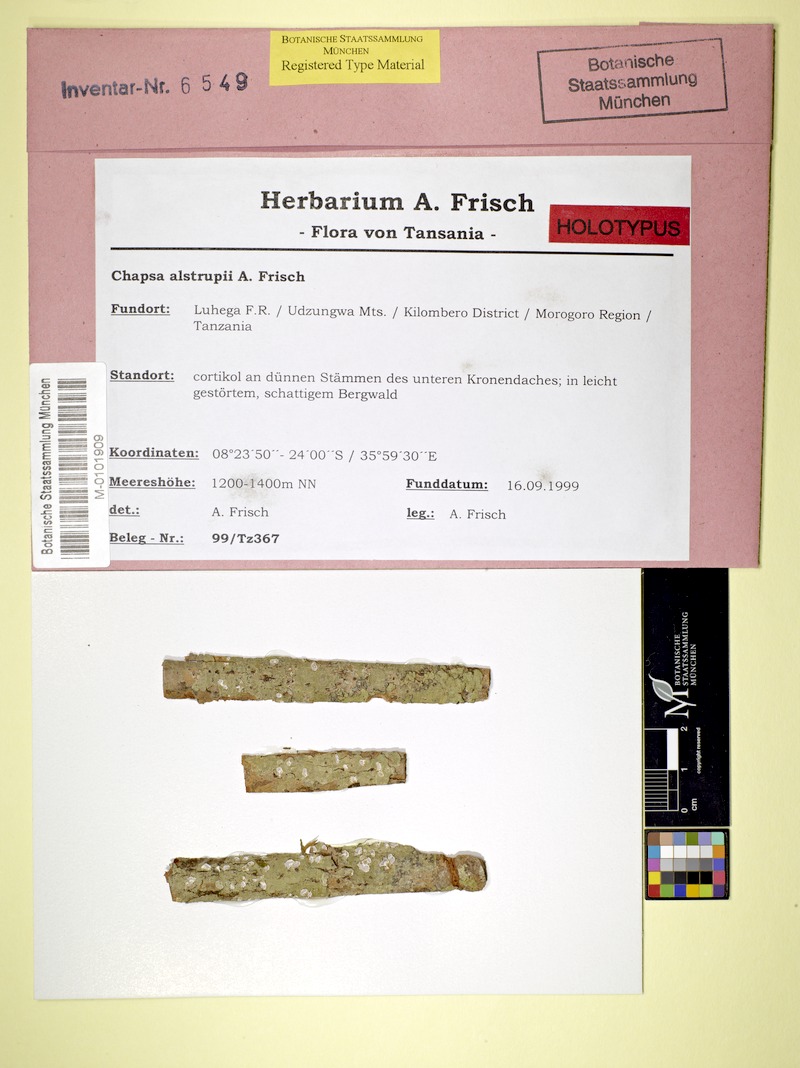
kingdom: Fungi
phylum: Ascomycota
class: Lecanoromycetes
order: Ostropales
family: Graphidaceae
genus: Astrochapsa
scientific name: Astrochapsa alstrupii
